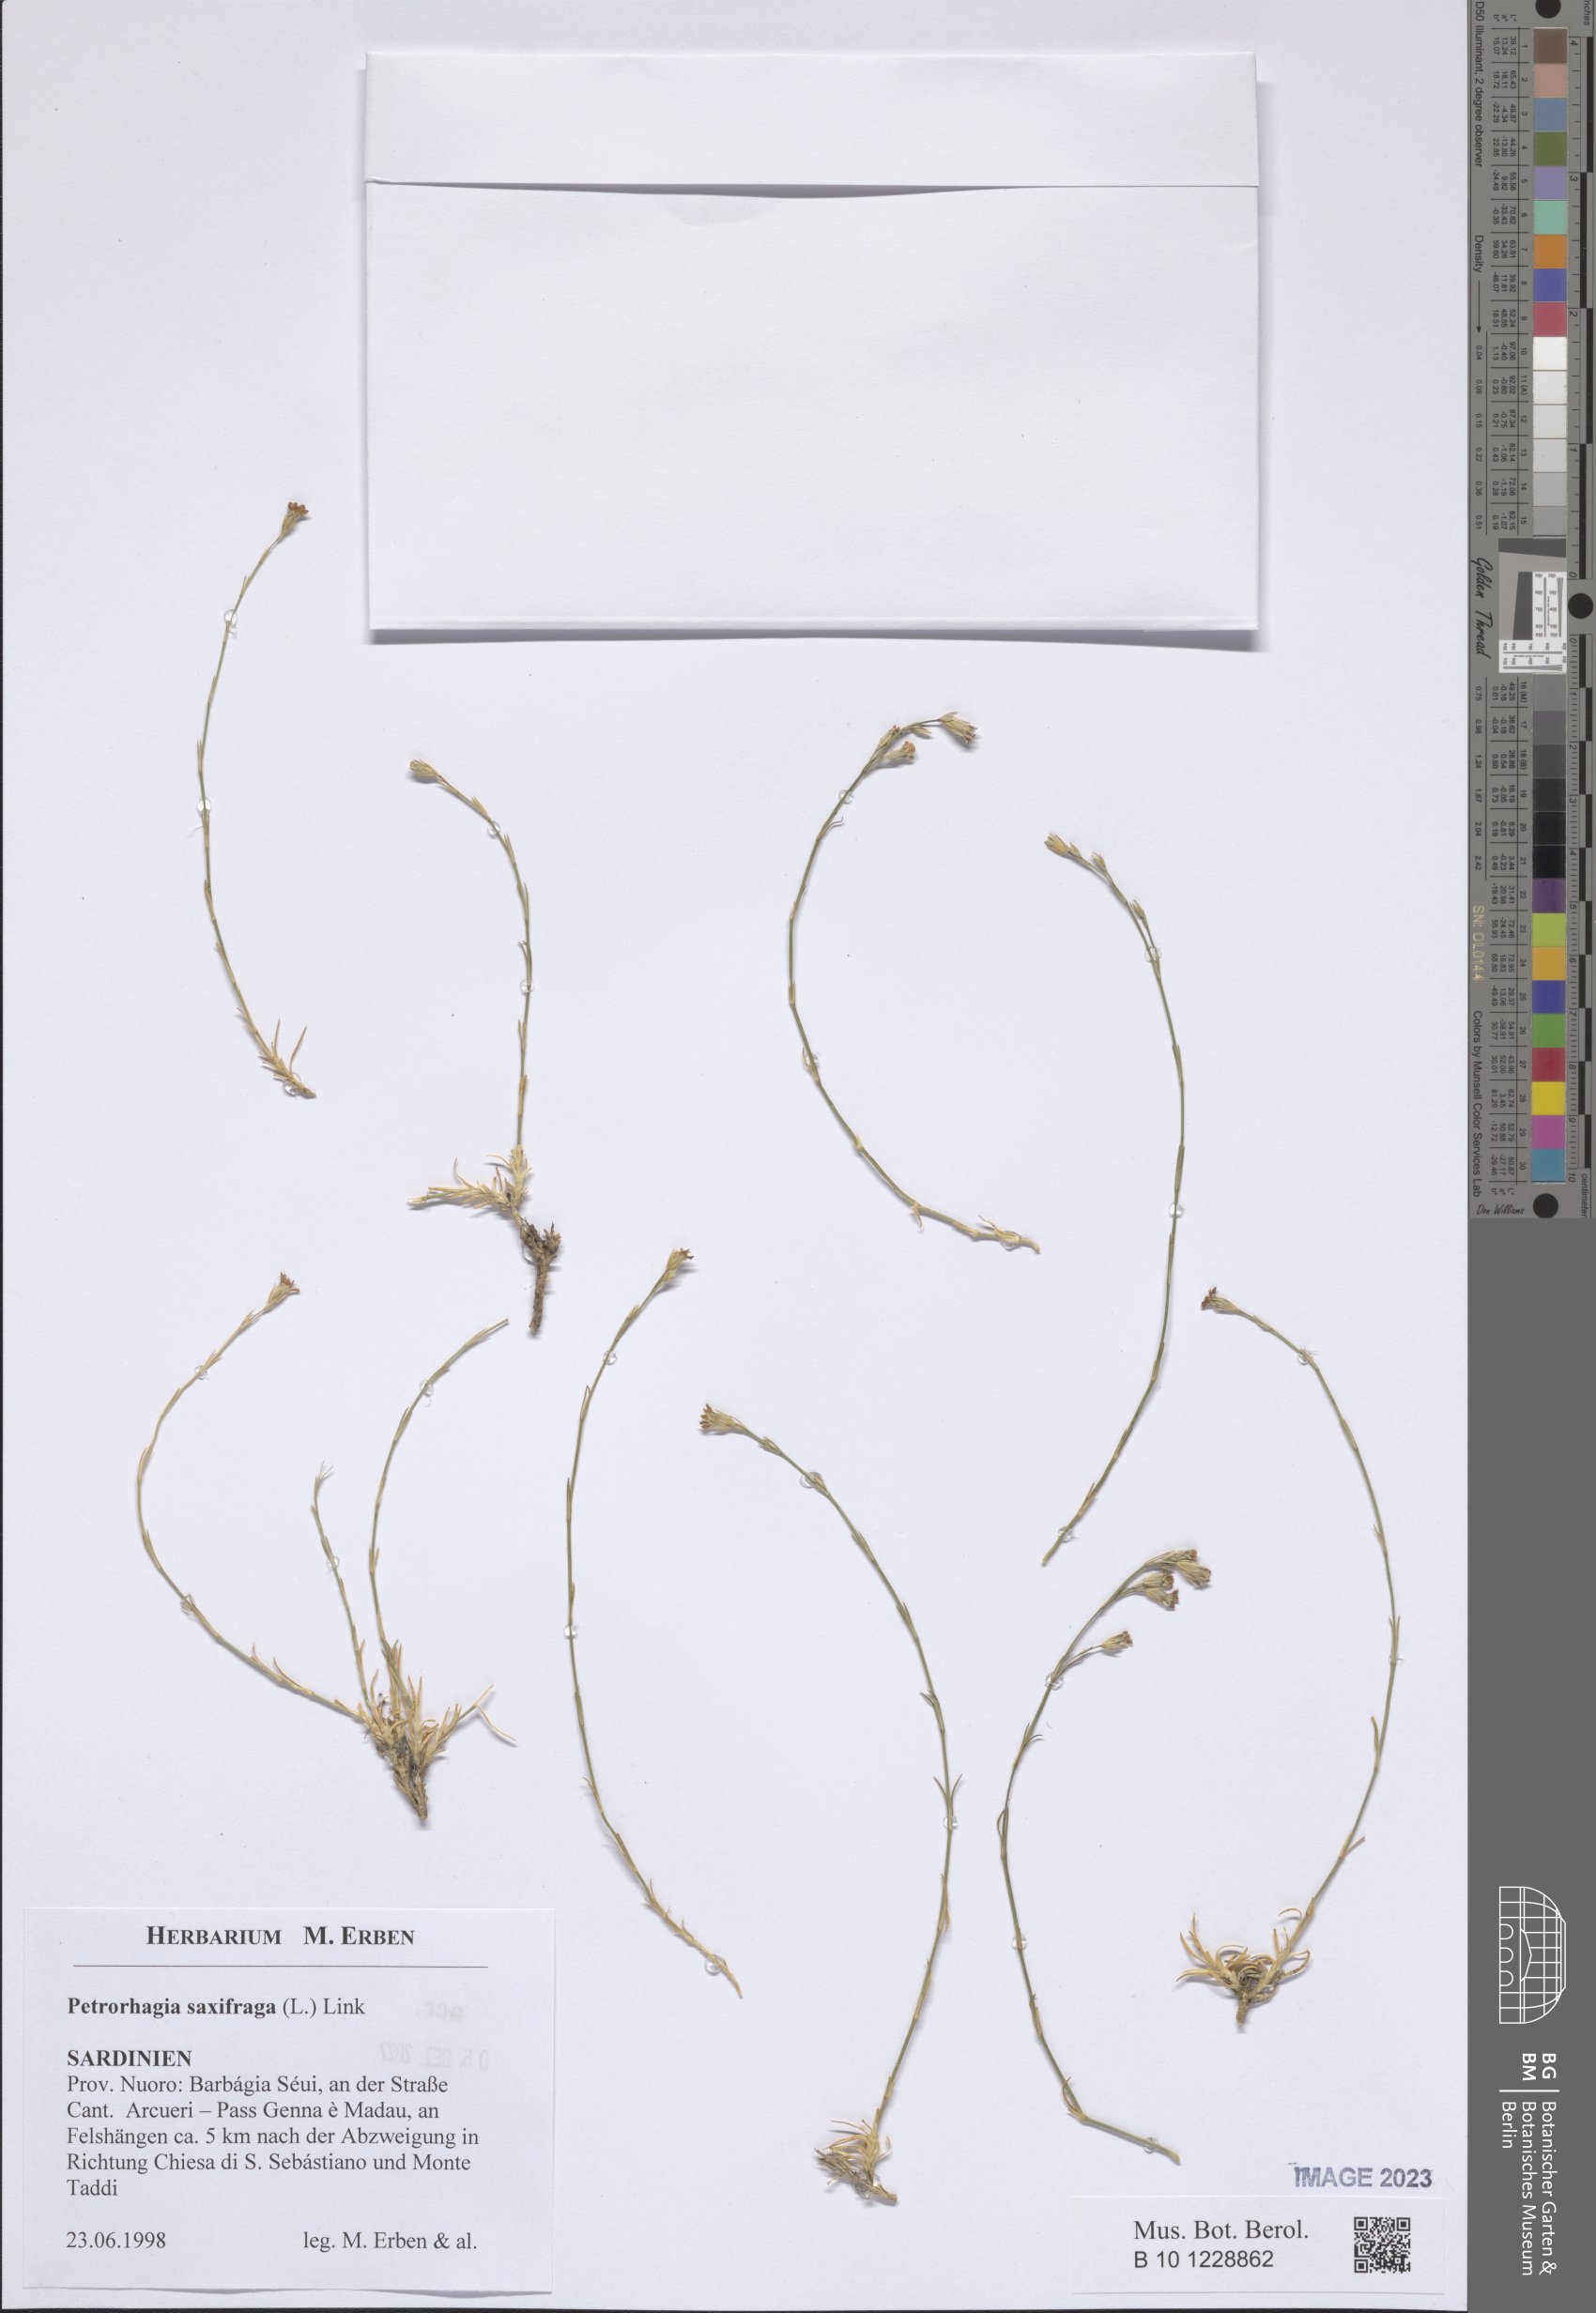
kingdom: Plantae
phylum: Tracheophyta
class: Magnoliopsida
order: Caryophyllales
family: Caryophyllaceae
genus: Petrorhagia
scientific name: Petrorhagia saxifraga
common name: Tunicflower
